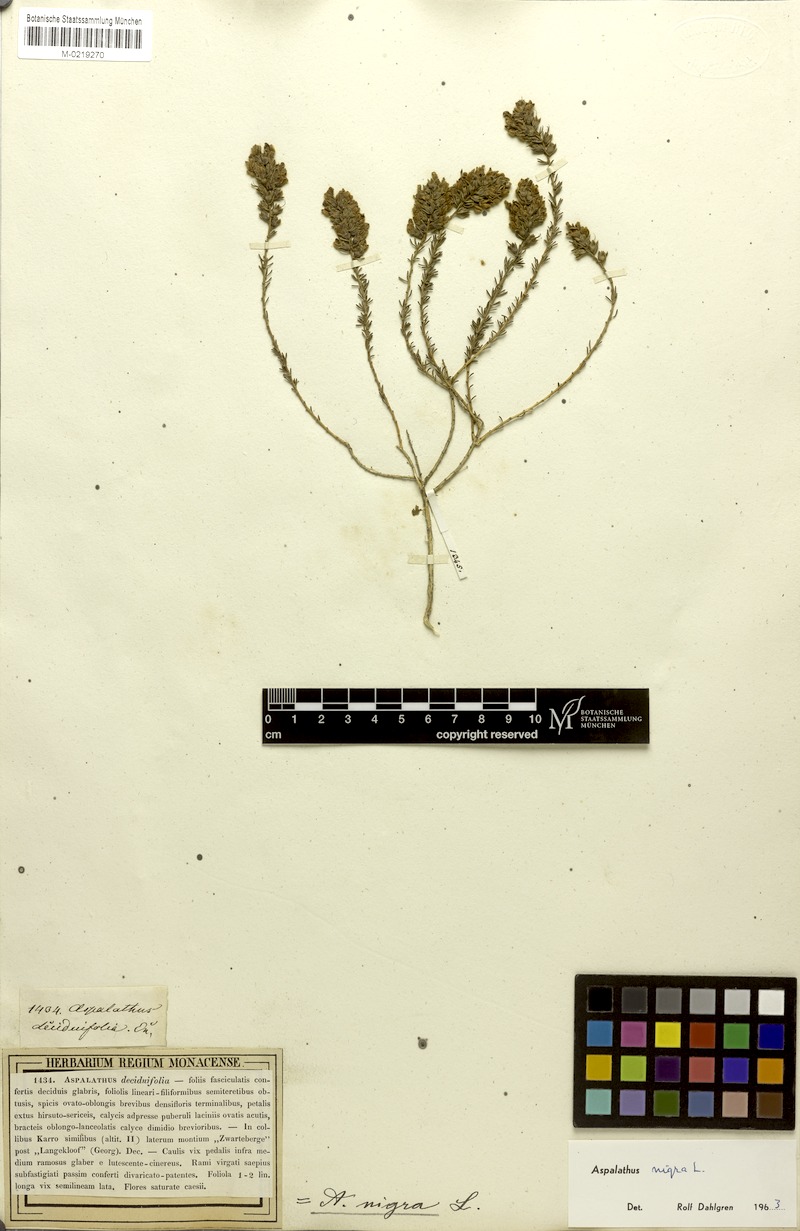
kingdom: Plantae
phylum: Tracheophyta
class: Magnoliopsida
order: Fabales
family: Fabaceae
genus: Aspalathus
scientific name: Aspalathus nigra
